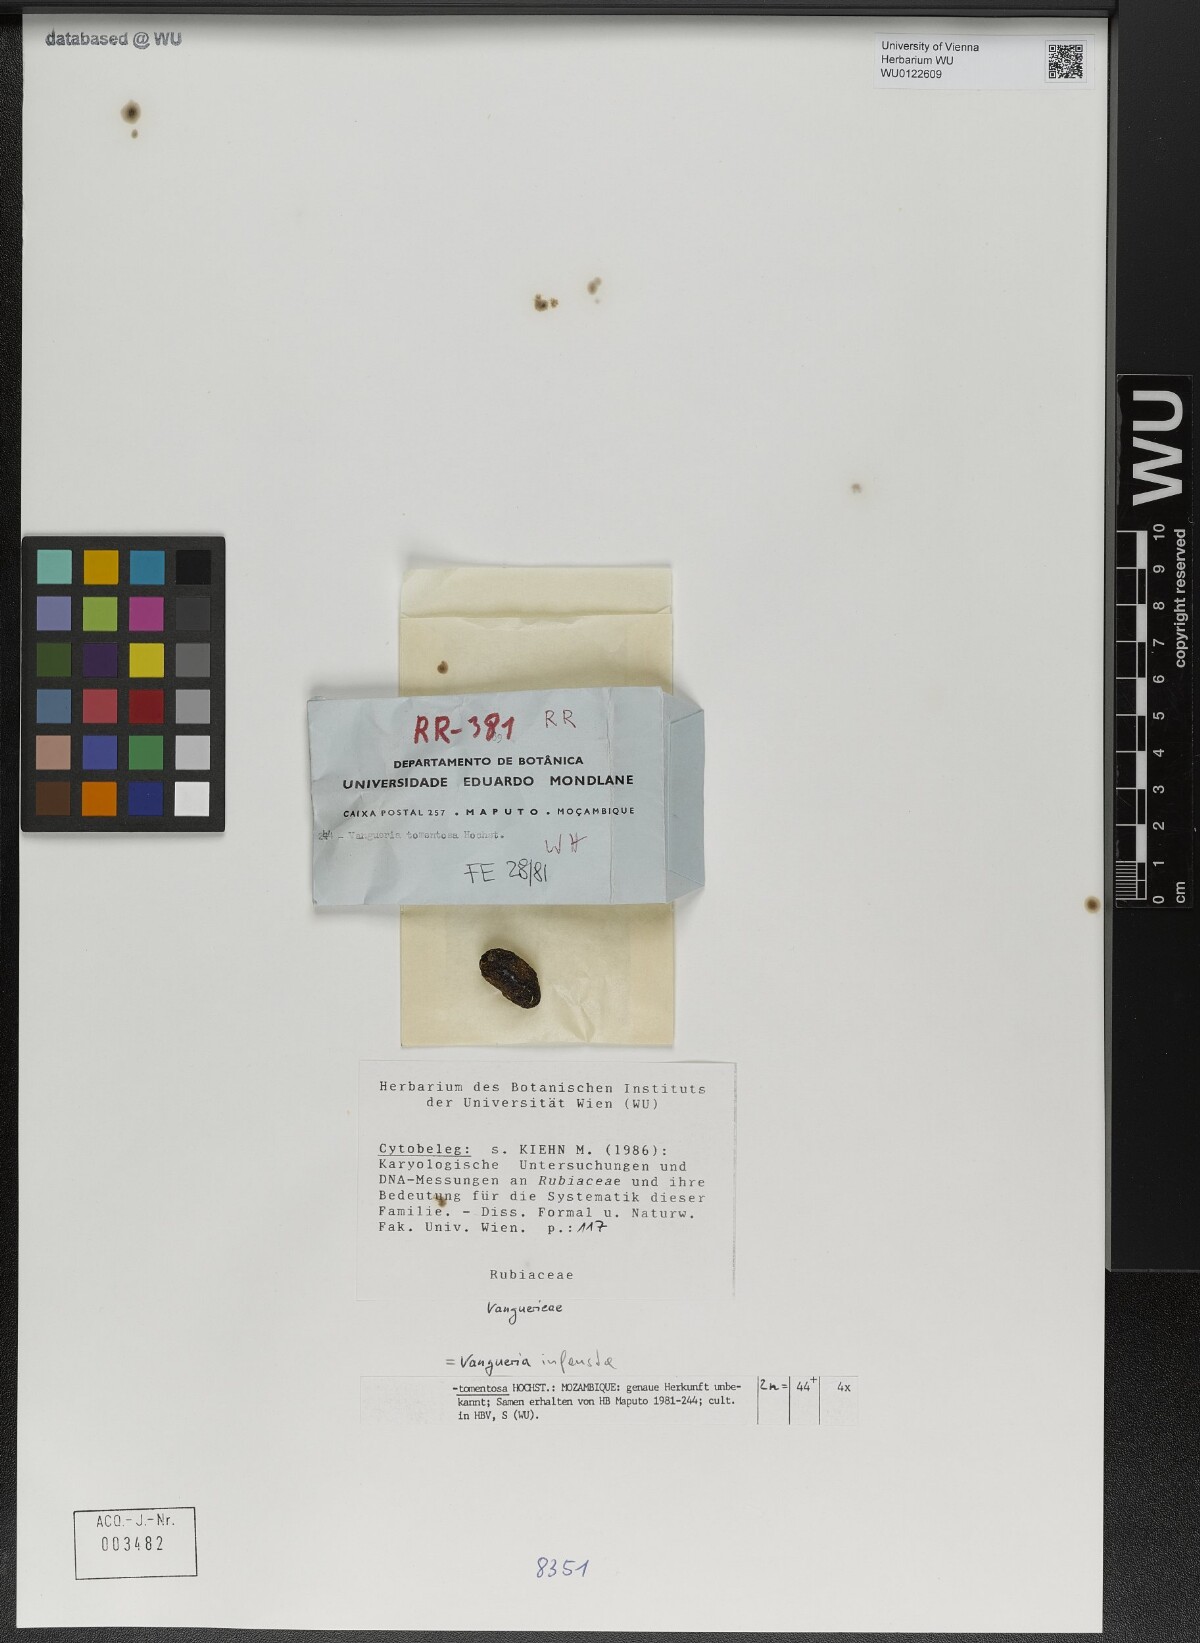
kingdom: Plantae
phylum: Tracheophyta
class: Magnoliopsida
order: Gentianales
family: Rubiaceae
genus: Vangueria
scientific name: Vangueria infausta
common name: Medlar
